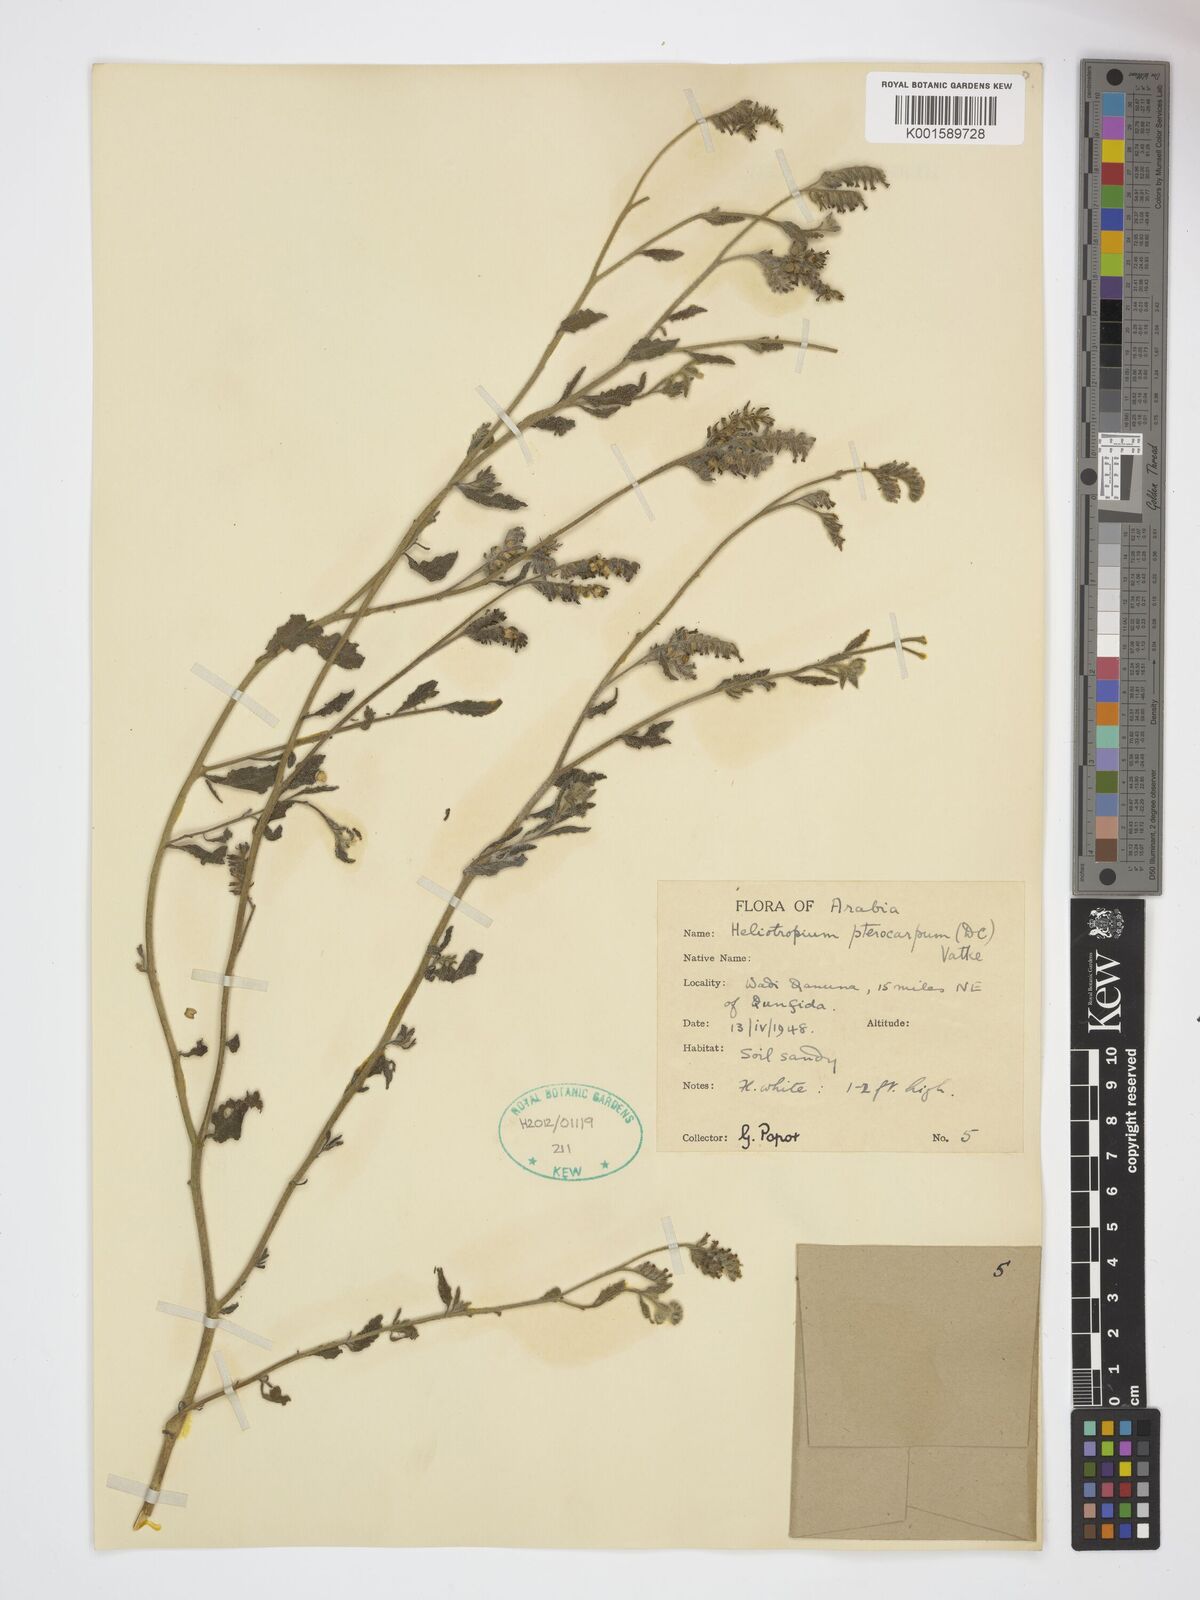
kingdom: Plantae
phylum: Tracheophyta
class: Magnoliopsida
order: Boraginales
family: Heliotropiaceae
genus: Heliotropium
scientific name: Heliotropium pterocarpum
